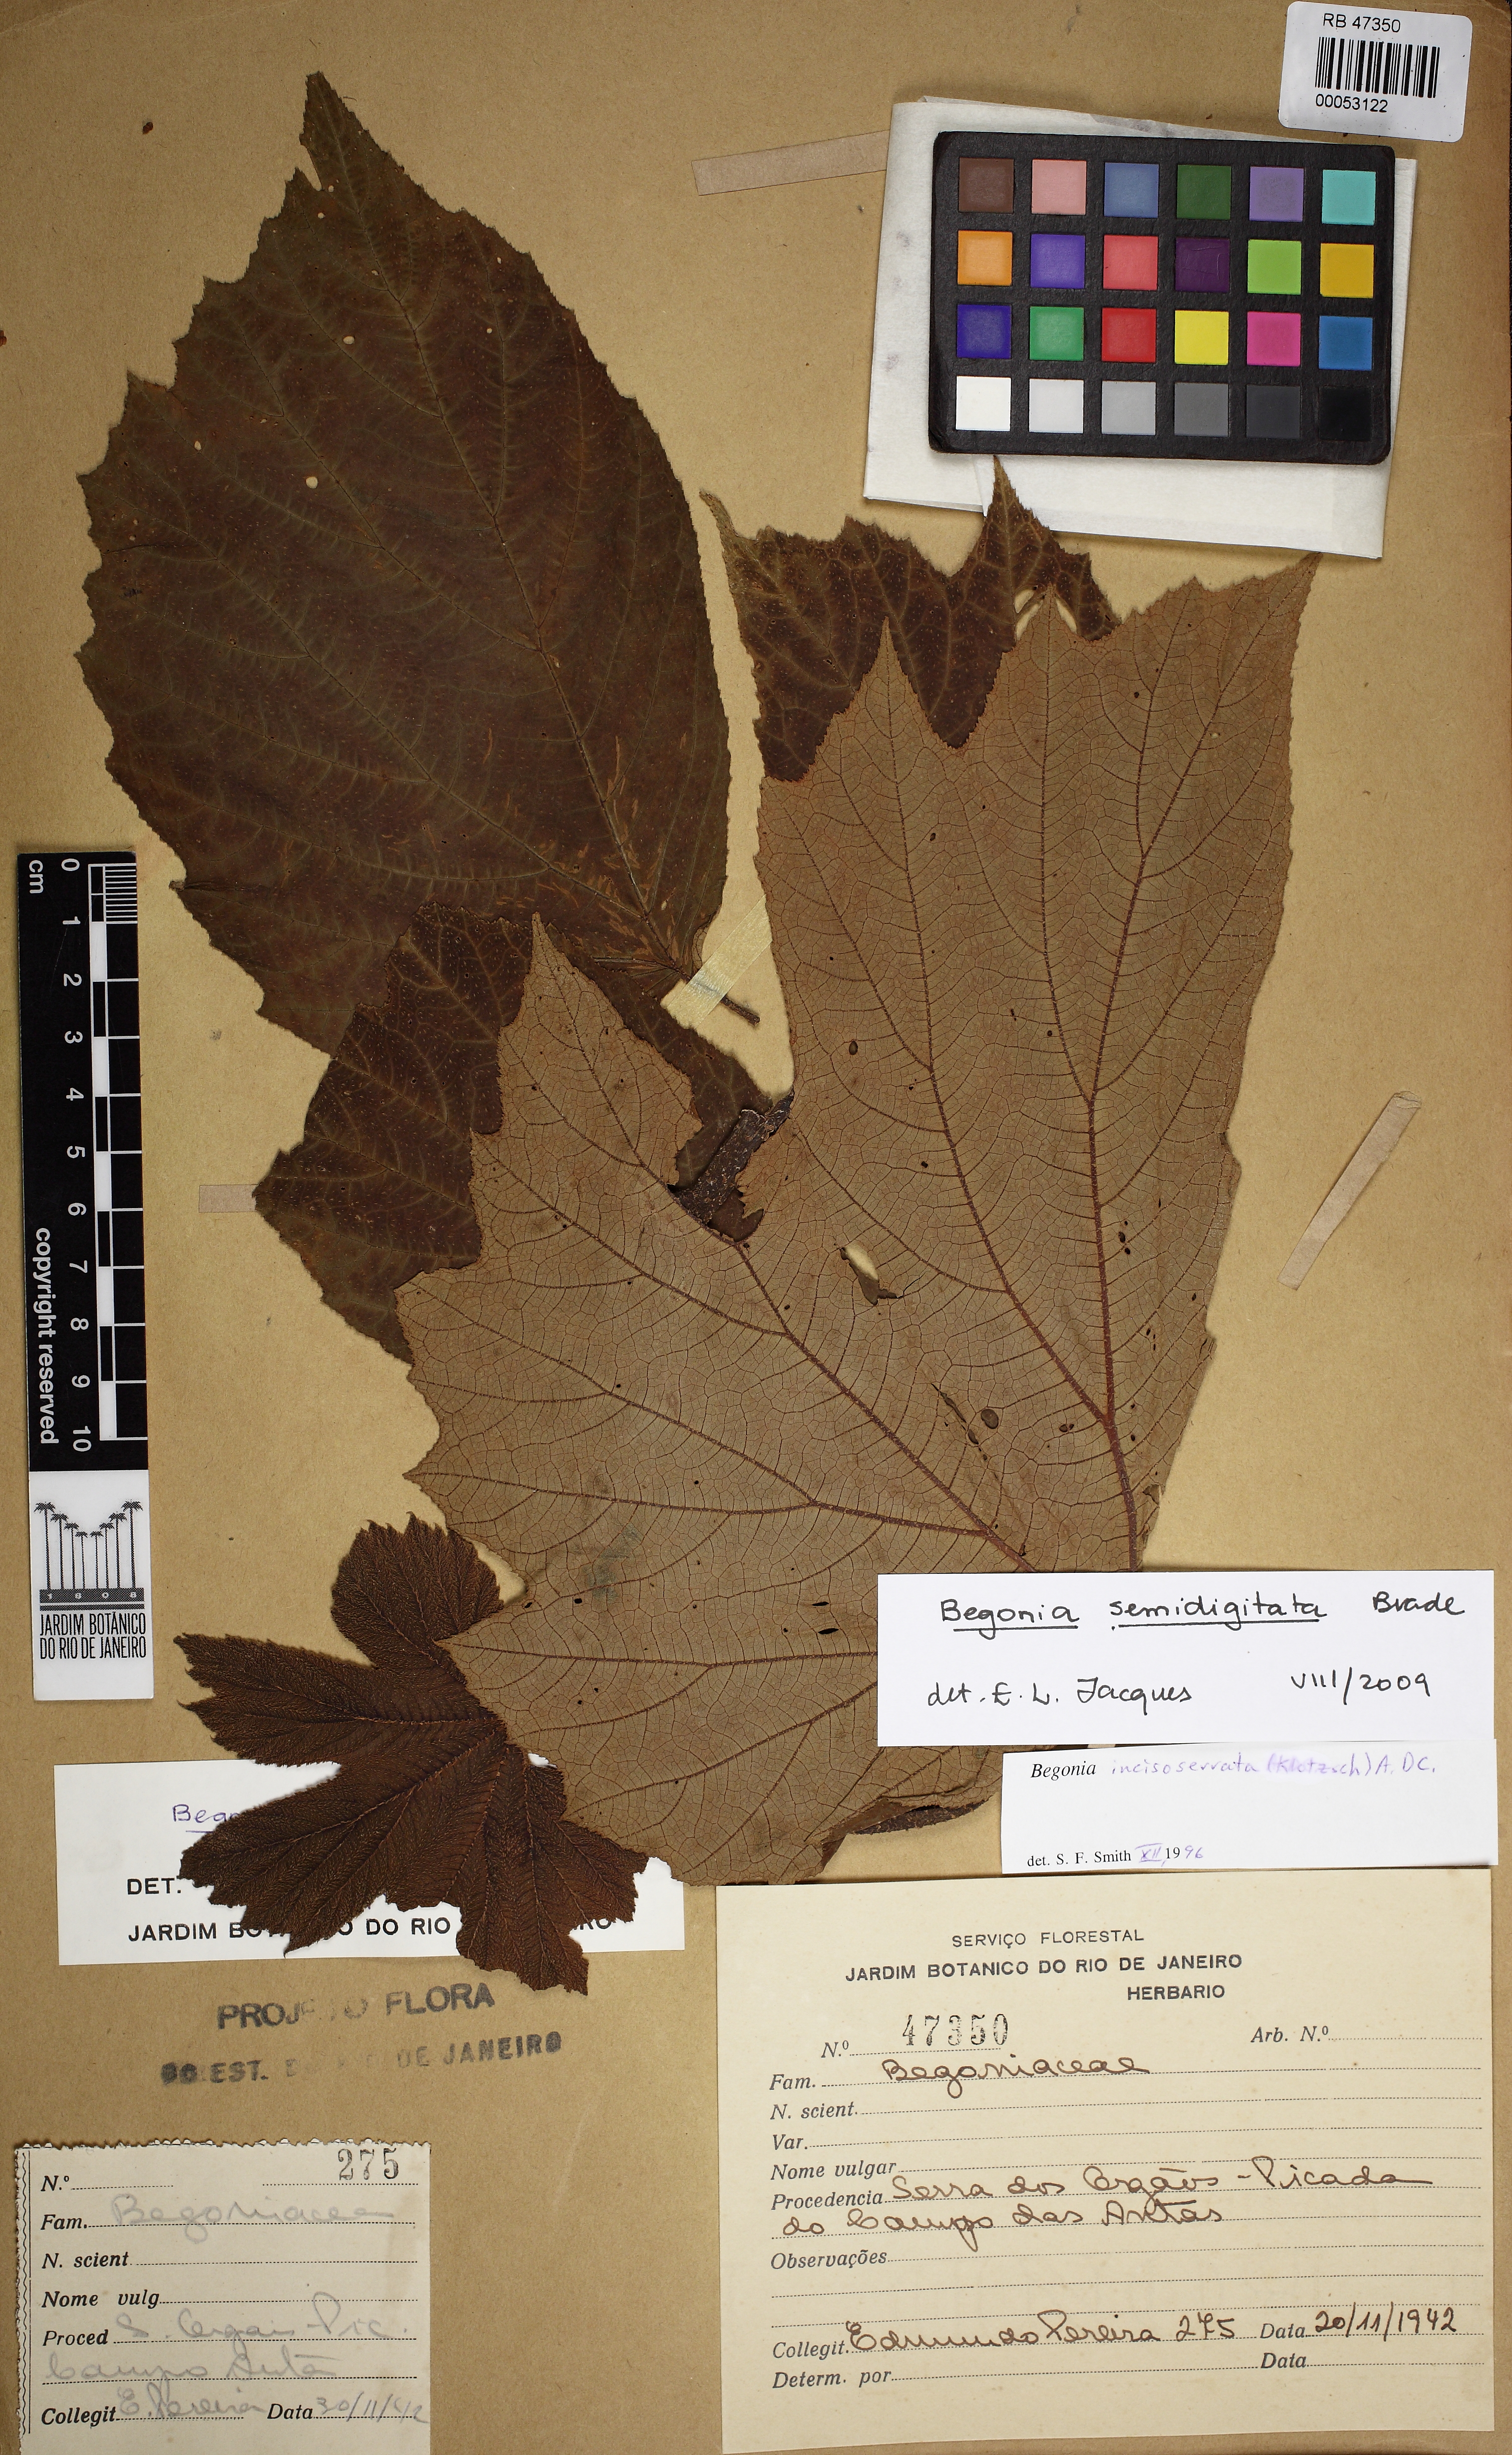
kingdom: Plantae
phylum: Tracheophyta
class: Magnoliopsida
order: Cucurbitales
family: Begoniaceae
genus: Begonia
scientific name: Begonia semidigitata
